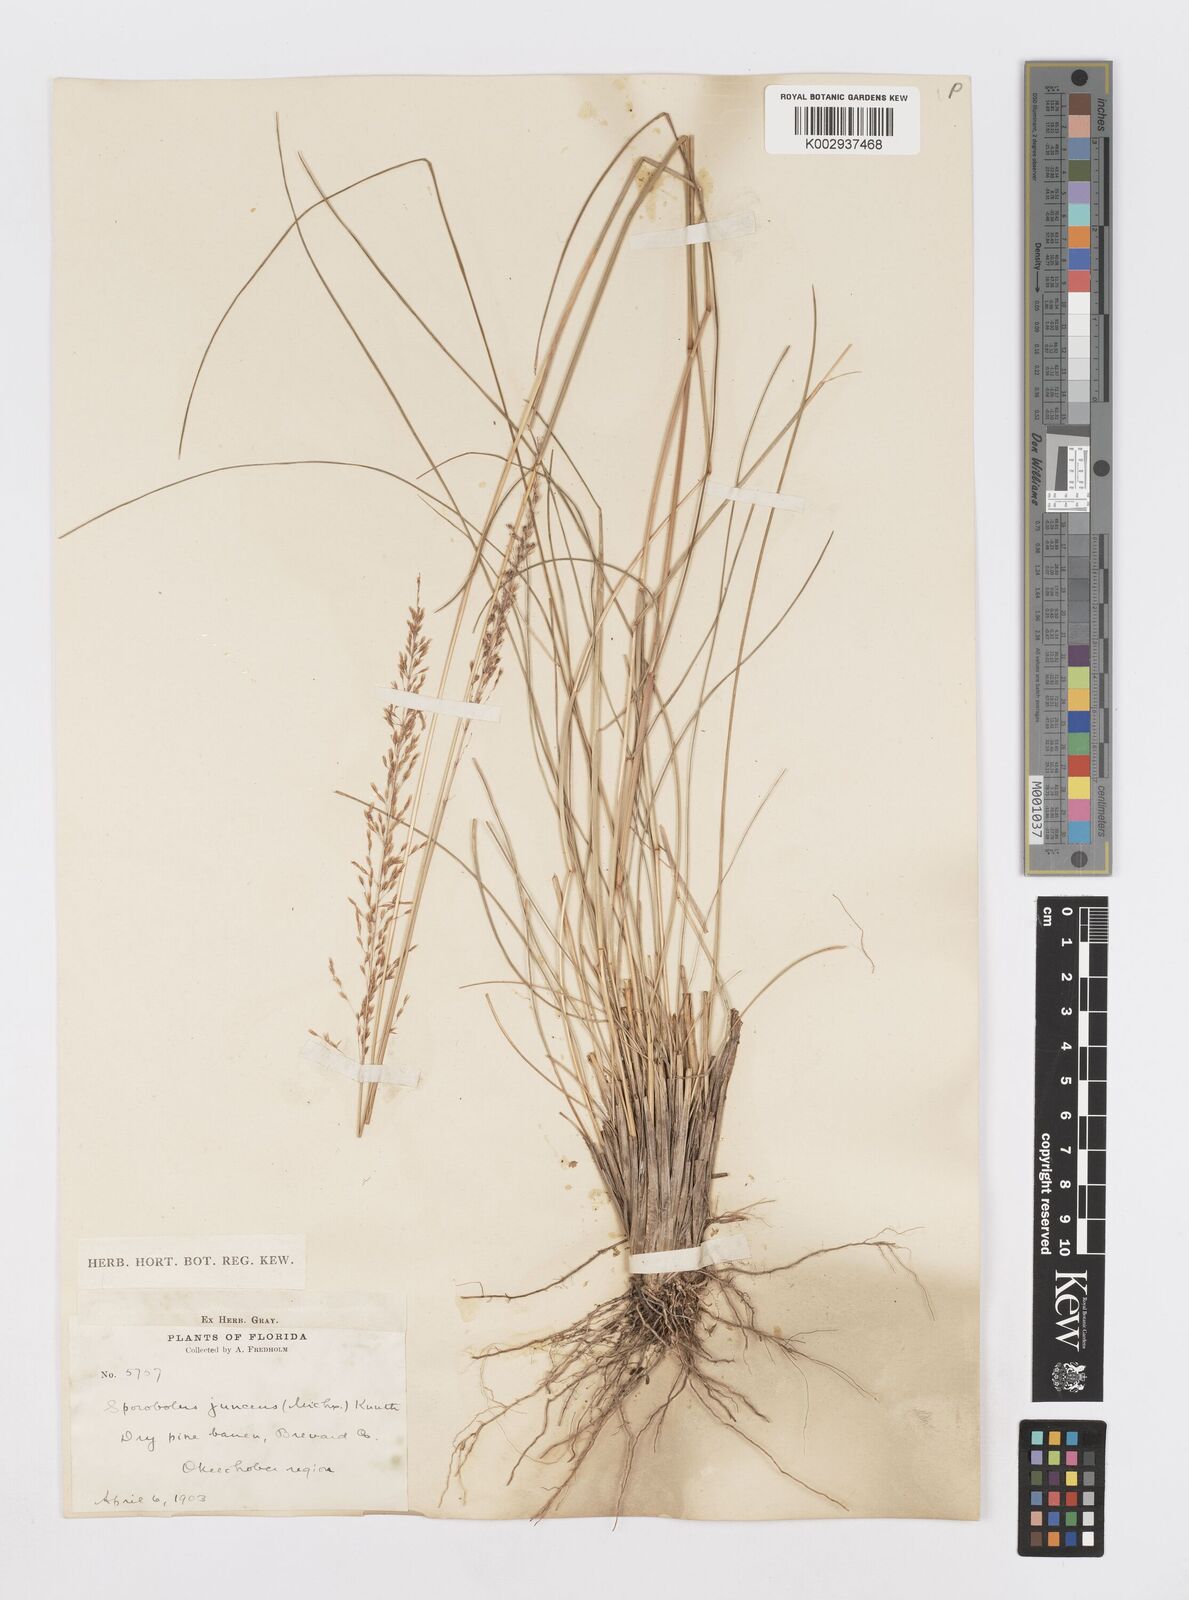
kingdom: Plantae
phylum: Tracheophyta
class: Liliopsida
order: Poales
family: Poaceae
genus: Sporobolus
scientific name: Sporobolus junceus
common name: Lizard grass
